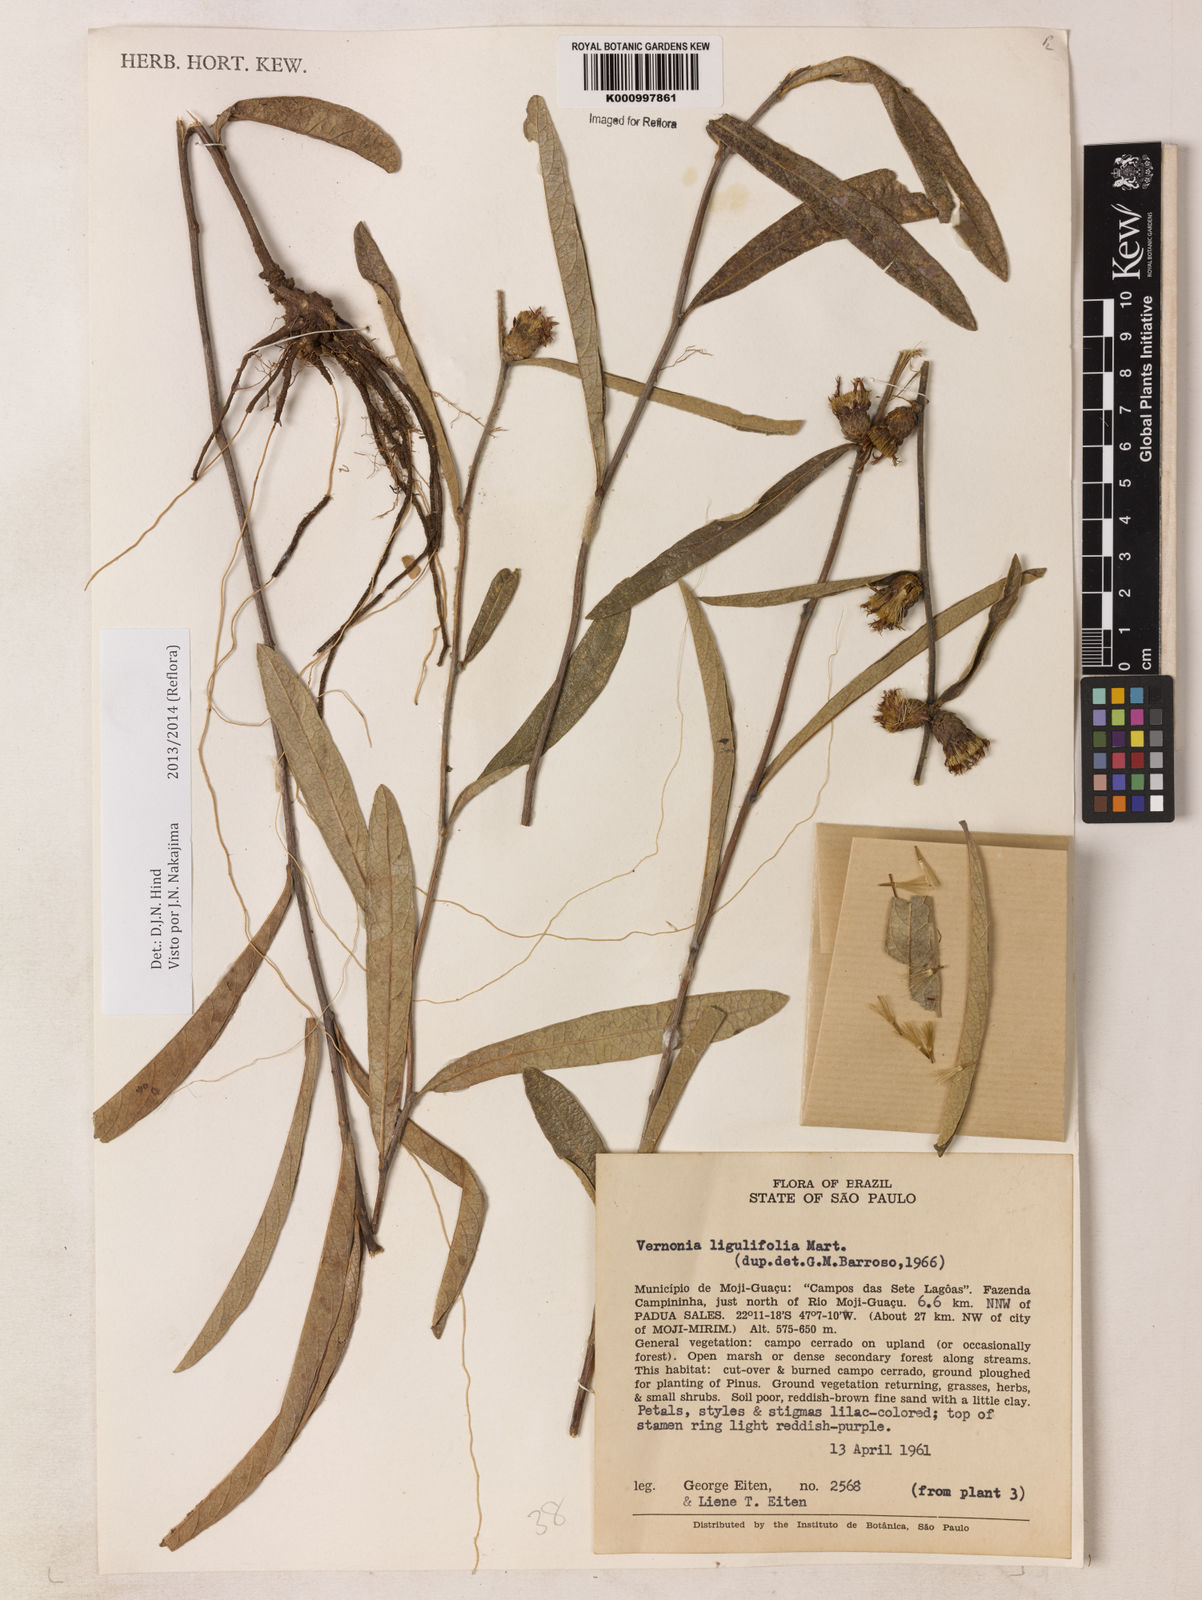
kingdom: Plantae
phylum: Tracheophyta
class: Magnoliopsida
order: Asterales
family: Asteraceae
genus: Lessingianthus
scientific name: Lessingianthus ligulifolius
